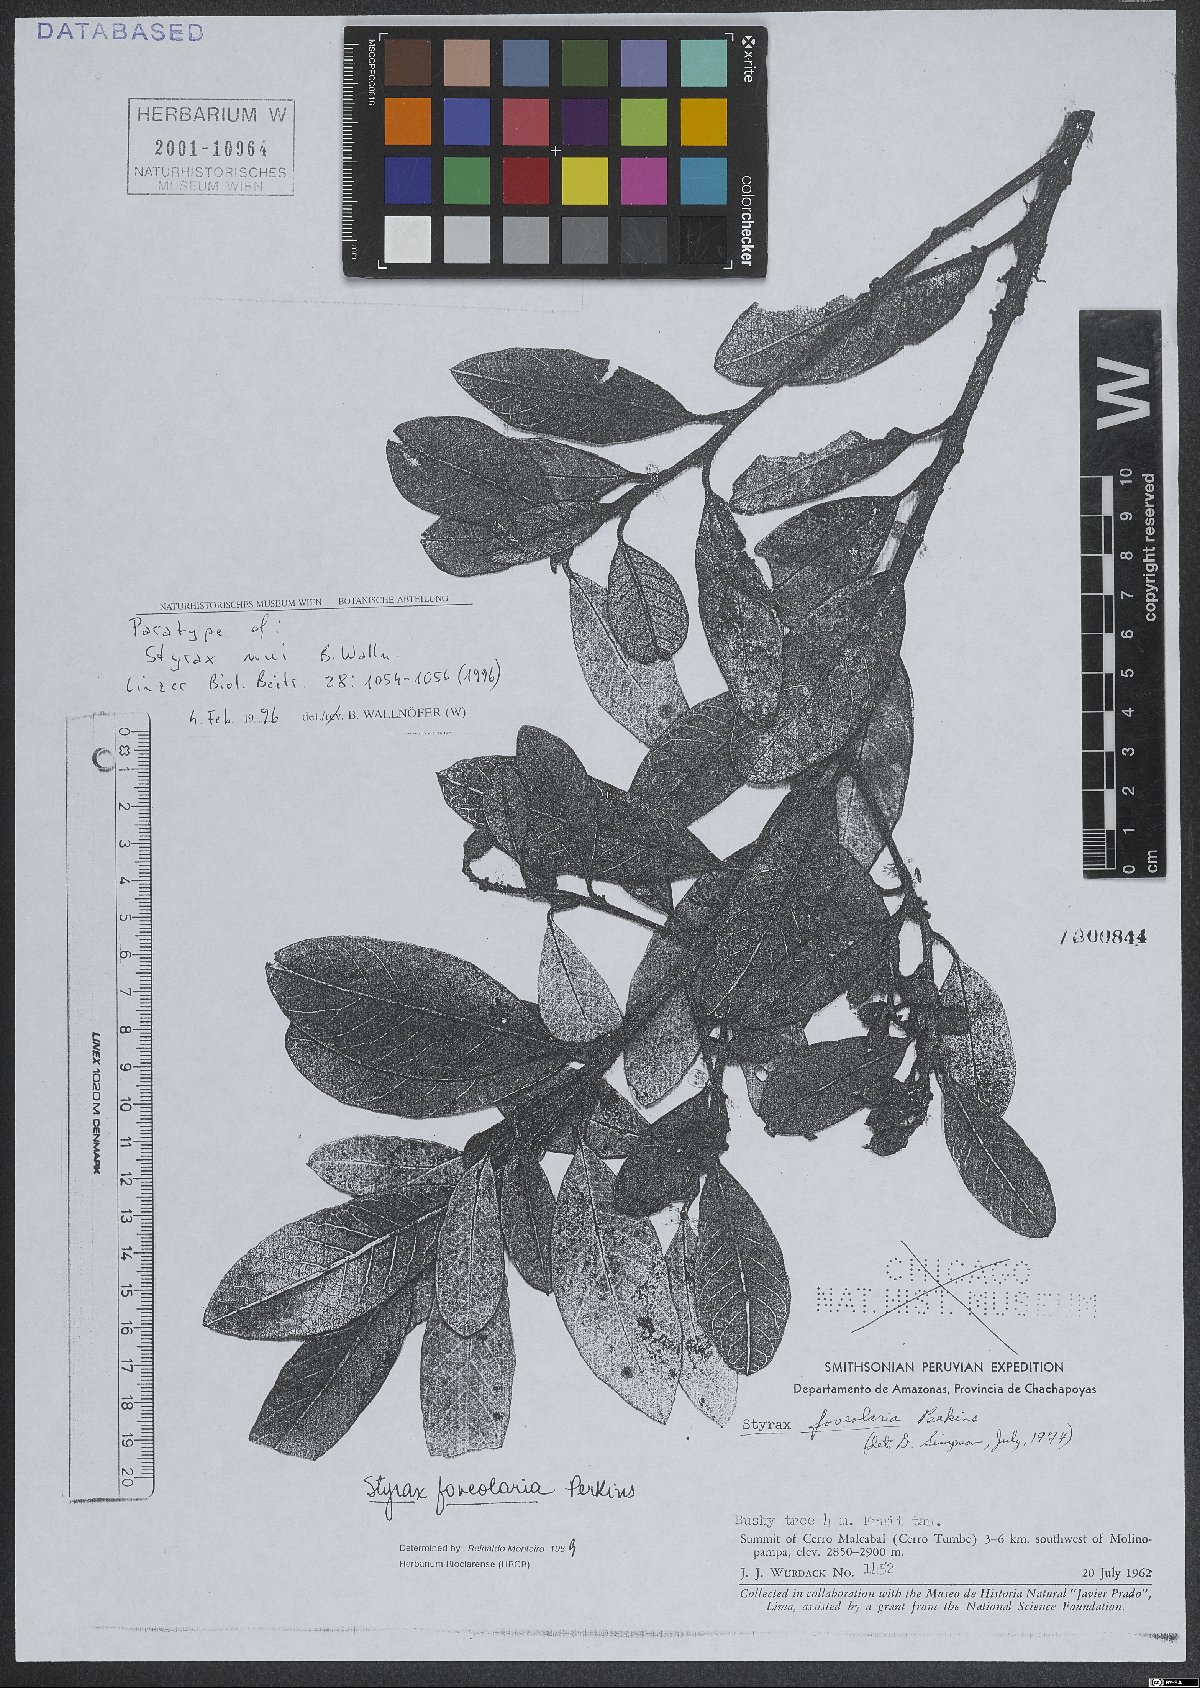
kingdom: Plantae
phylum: Tracheophyta
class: Magnoliopsida
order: Ericales
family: Styracaceae
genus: Styrax
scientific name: Styrax nui
